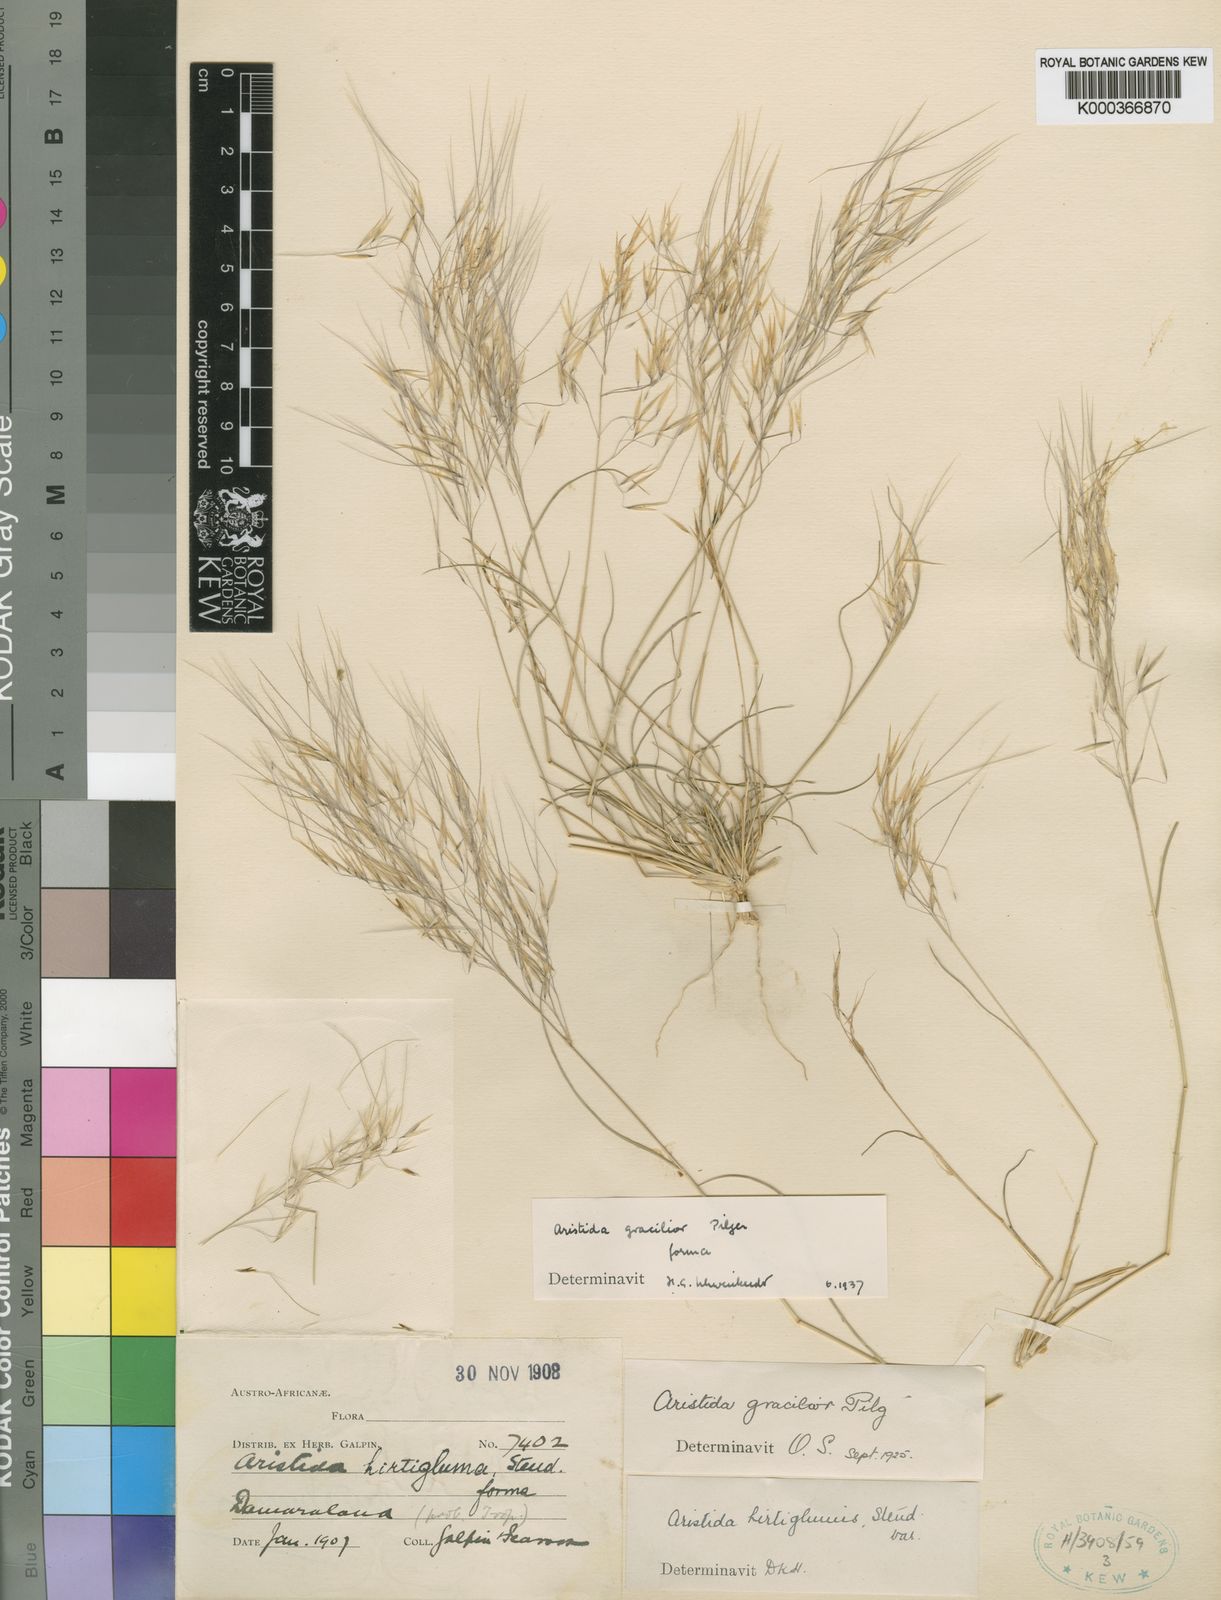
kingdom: Plantae
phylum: Tracheophyta
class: Liliopsida
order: Poales
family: Poaceae
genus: Stipagrostis
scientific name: Stipagrostis hirtigluma
